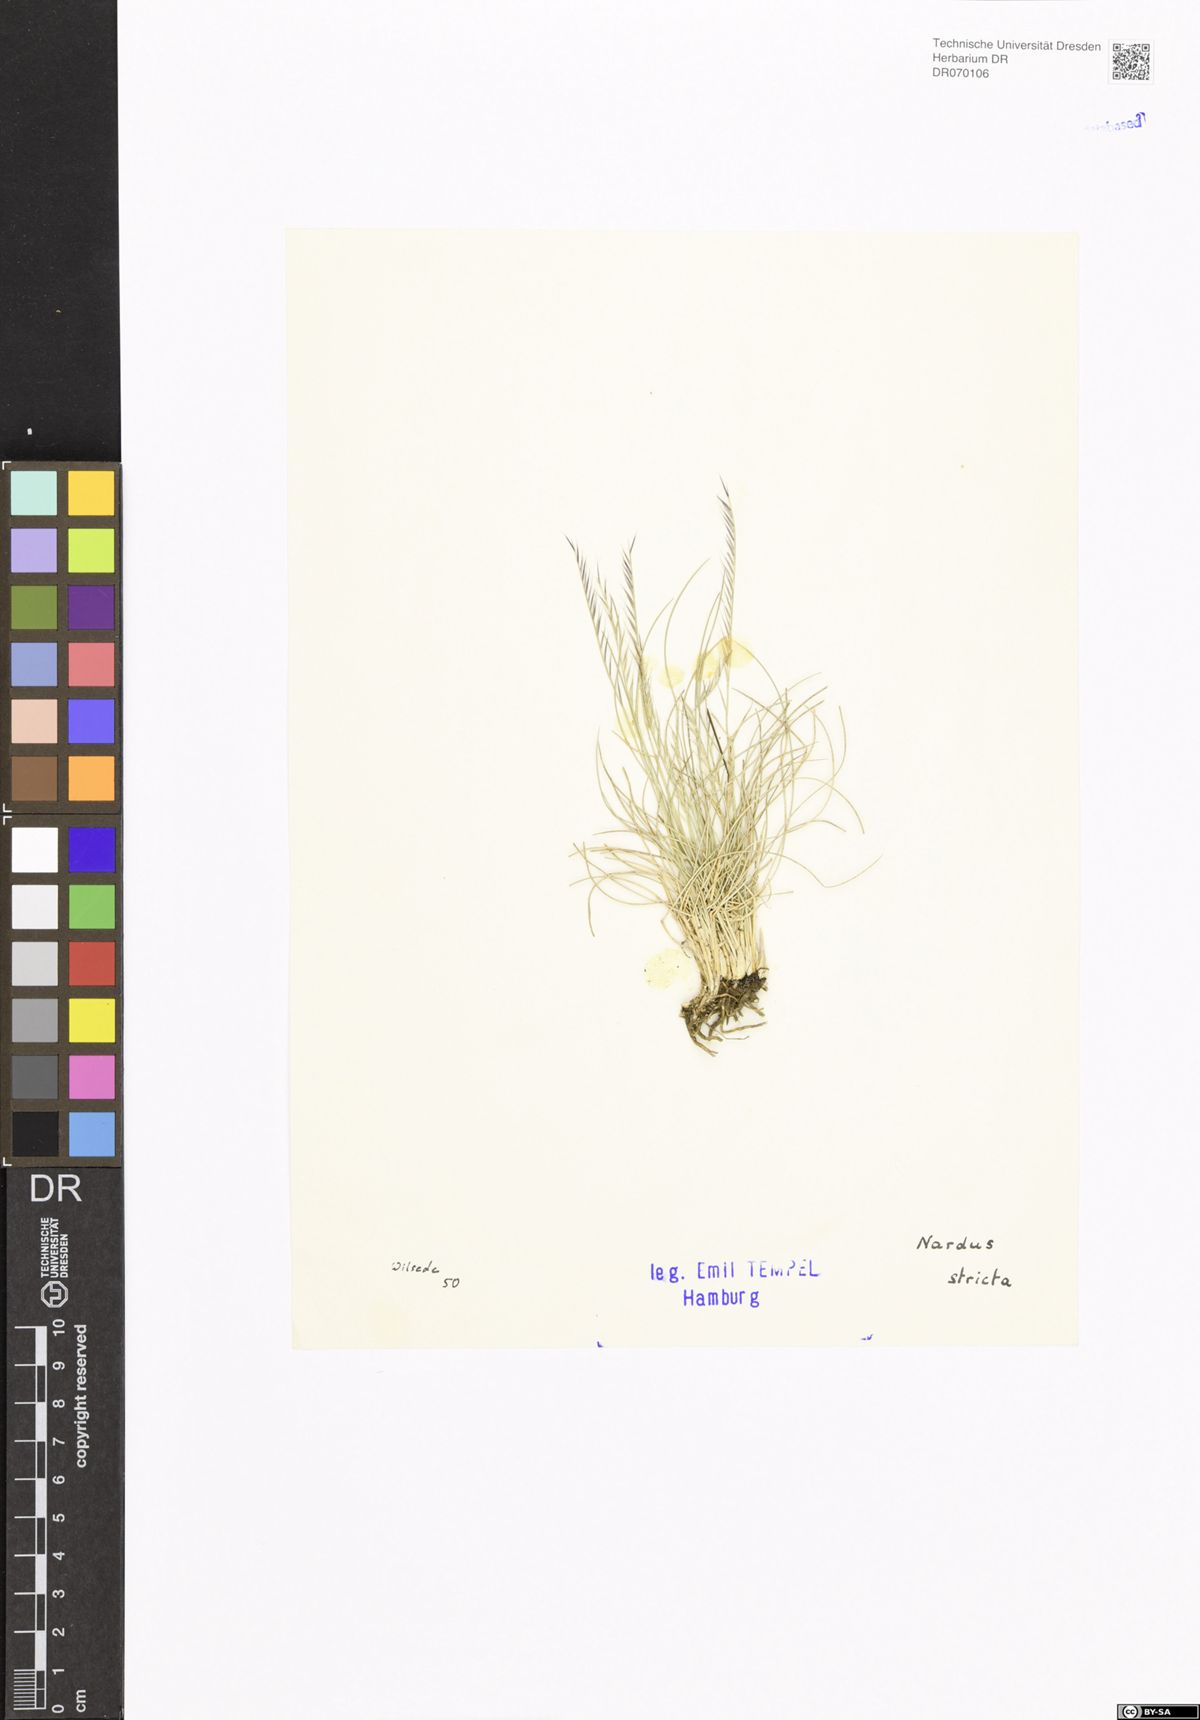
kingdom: Plantae
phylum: Tracheophyta
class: Liliopsida
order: Poales
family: Poaceae
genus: Nardus
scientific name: Nardus stricta
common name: Mat-grass
